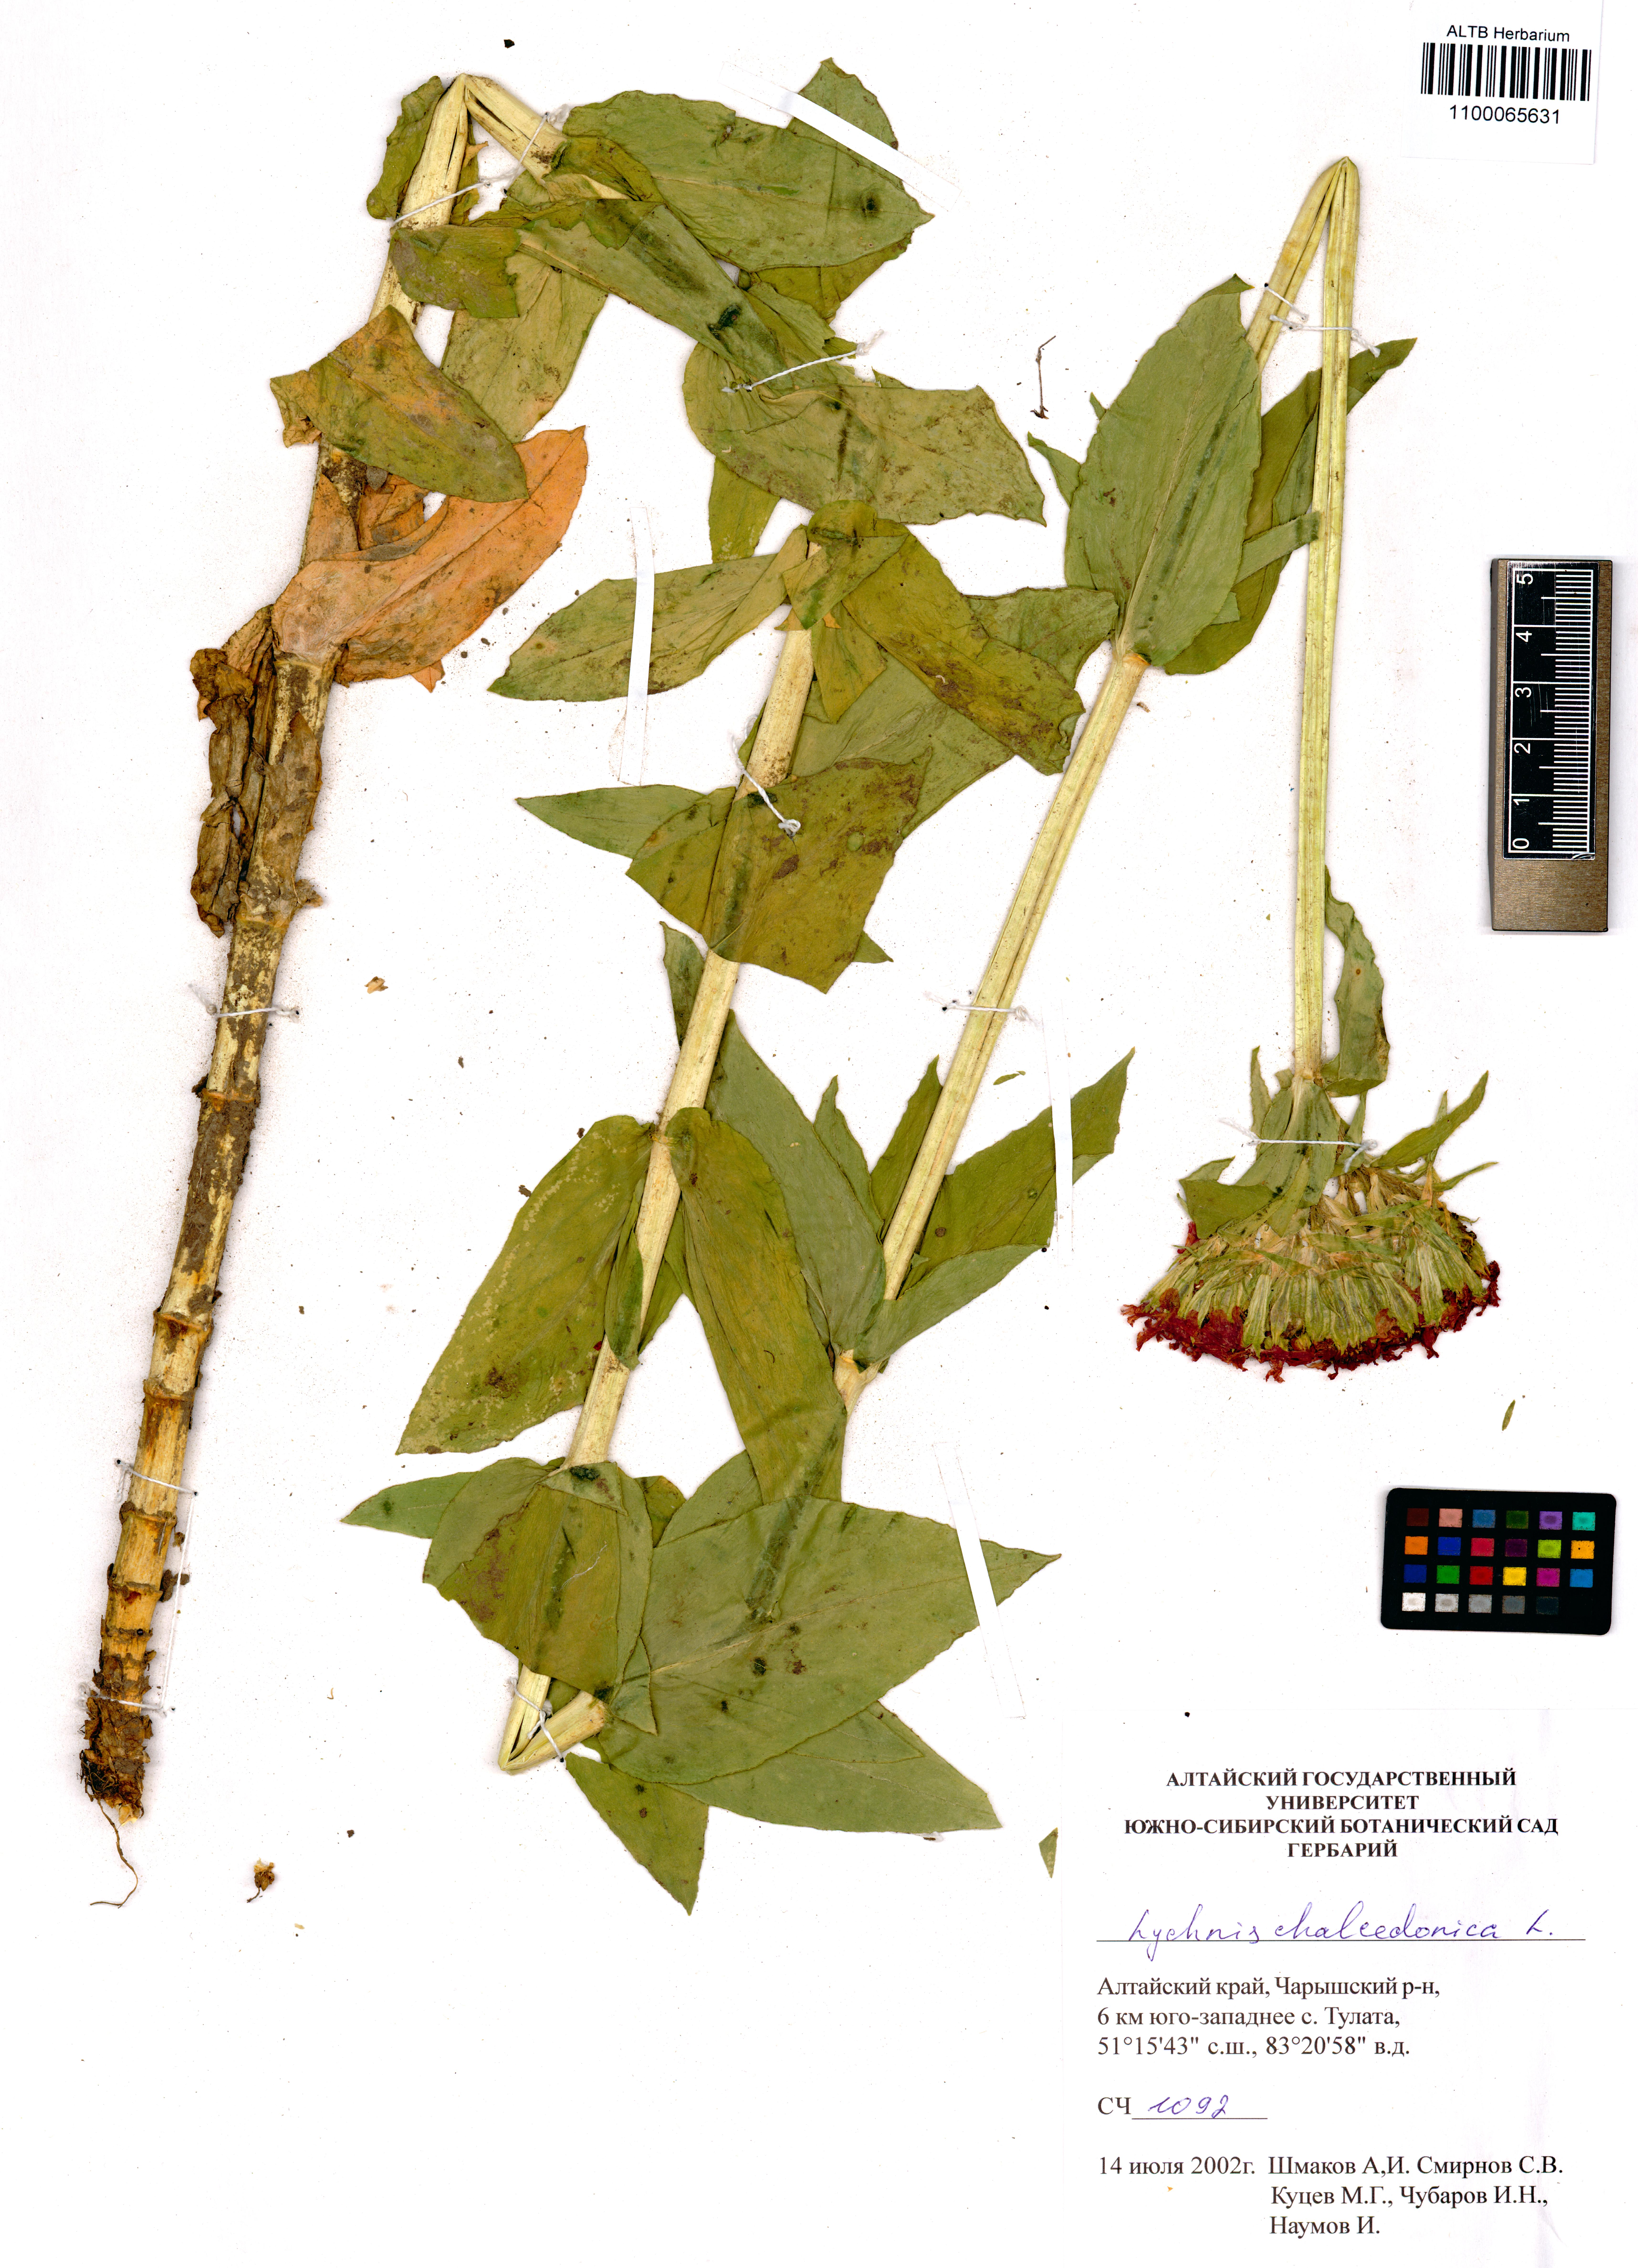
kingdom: Plantae
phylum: Tracheophyta
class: Magnoliopsida
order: Caryophyllales
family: Caryophyllaceae
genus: Silene
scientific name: Silene chalcedonica
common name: Maltese-cross
